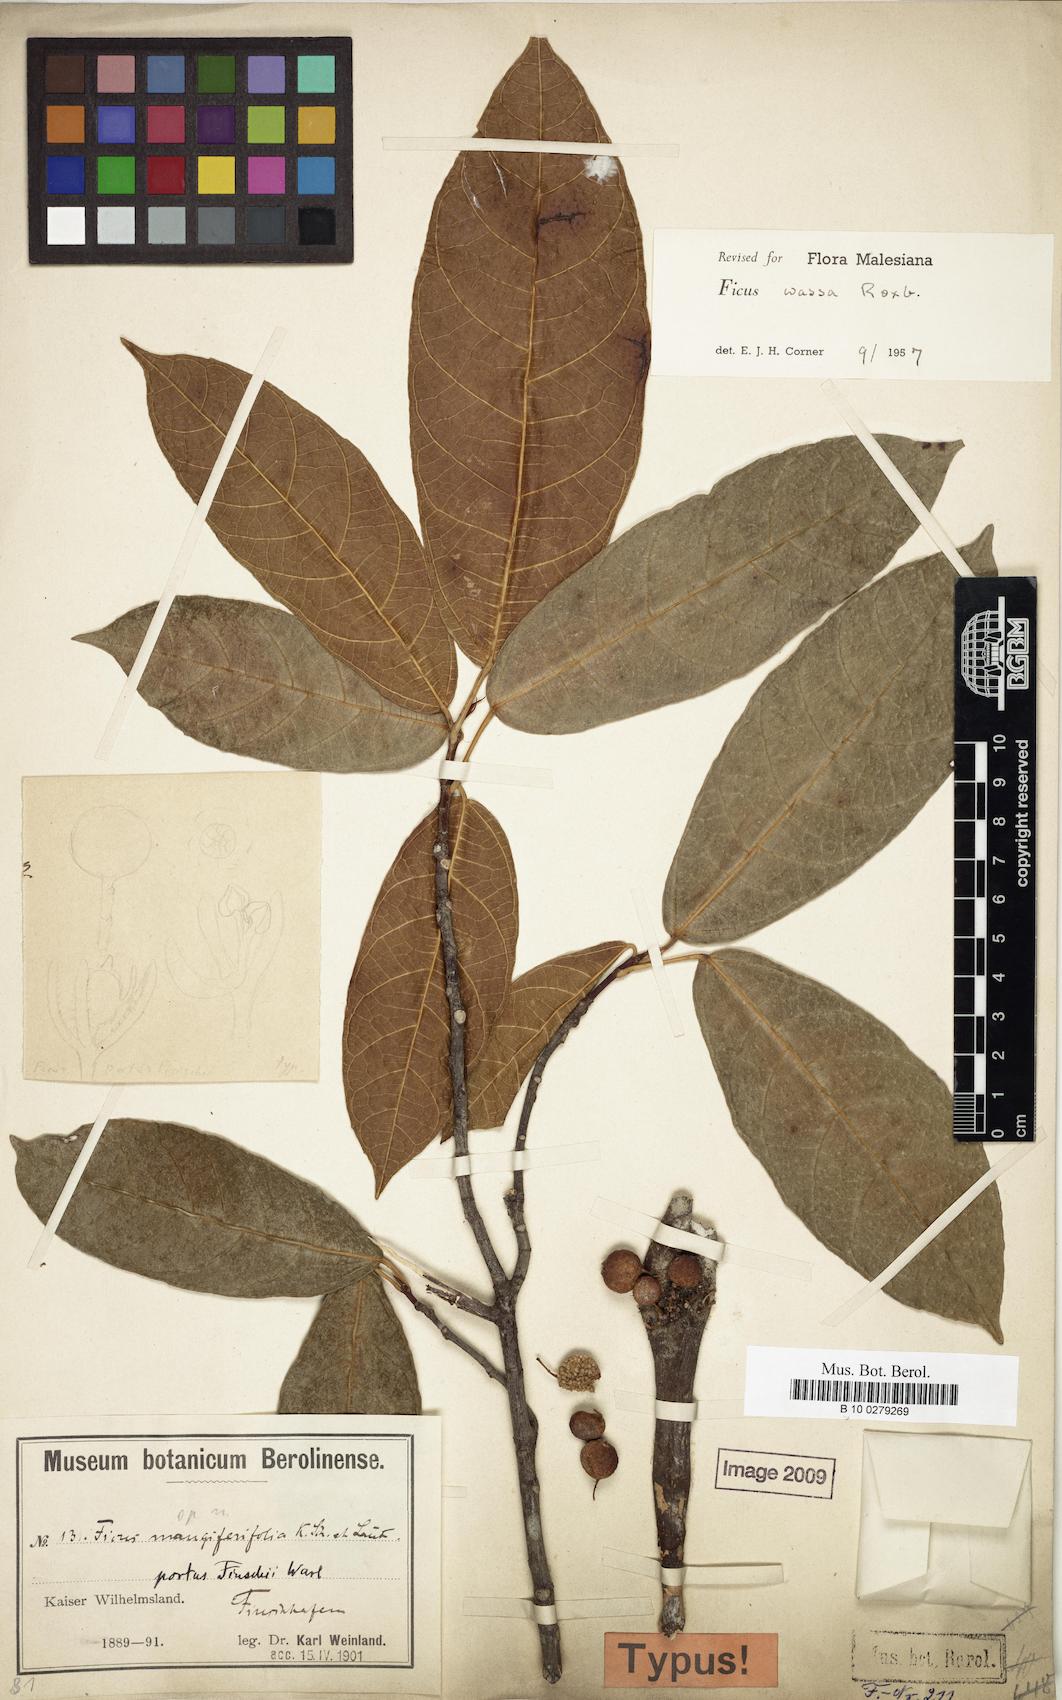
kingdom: Plantae
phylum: Tracheophyta
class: Magnoliopsida
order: Rosales
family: Moraceae
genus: Ficus
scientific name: Ficus wassa
